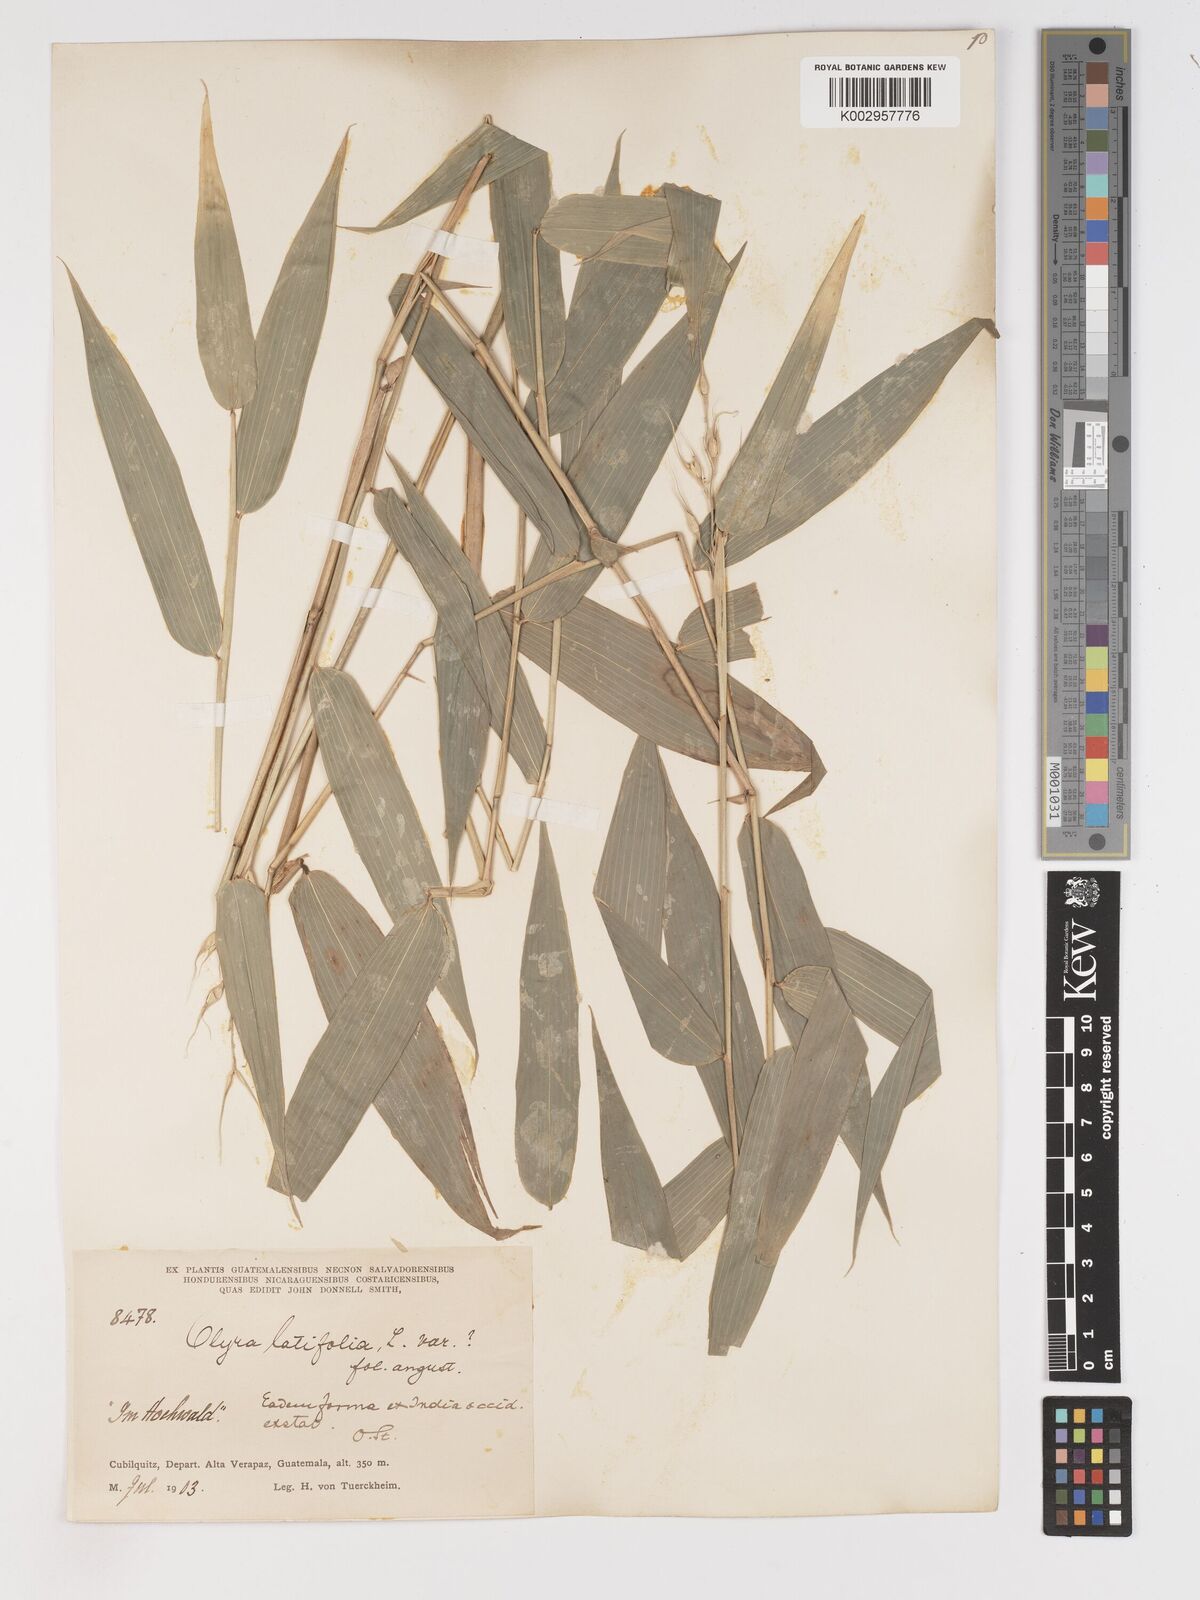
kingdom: Plantae
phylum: Tracheophyta
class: Liliopsida
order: Poales
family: Poaceae
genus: Olyra
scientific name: Olyra latifolia
